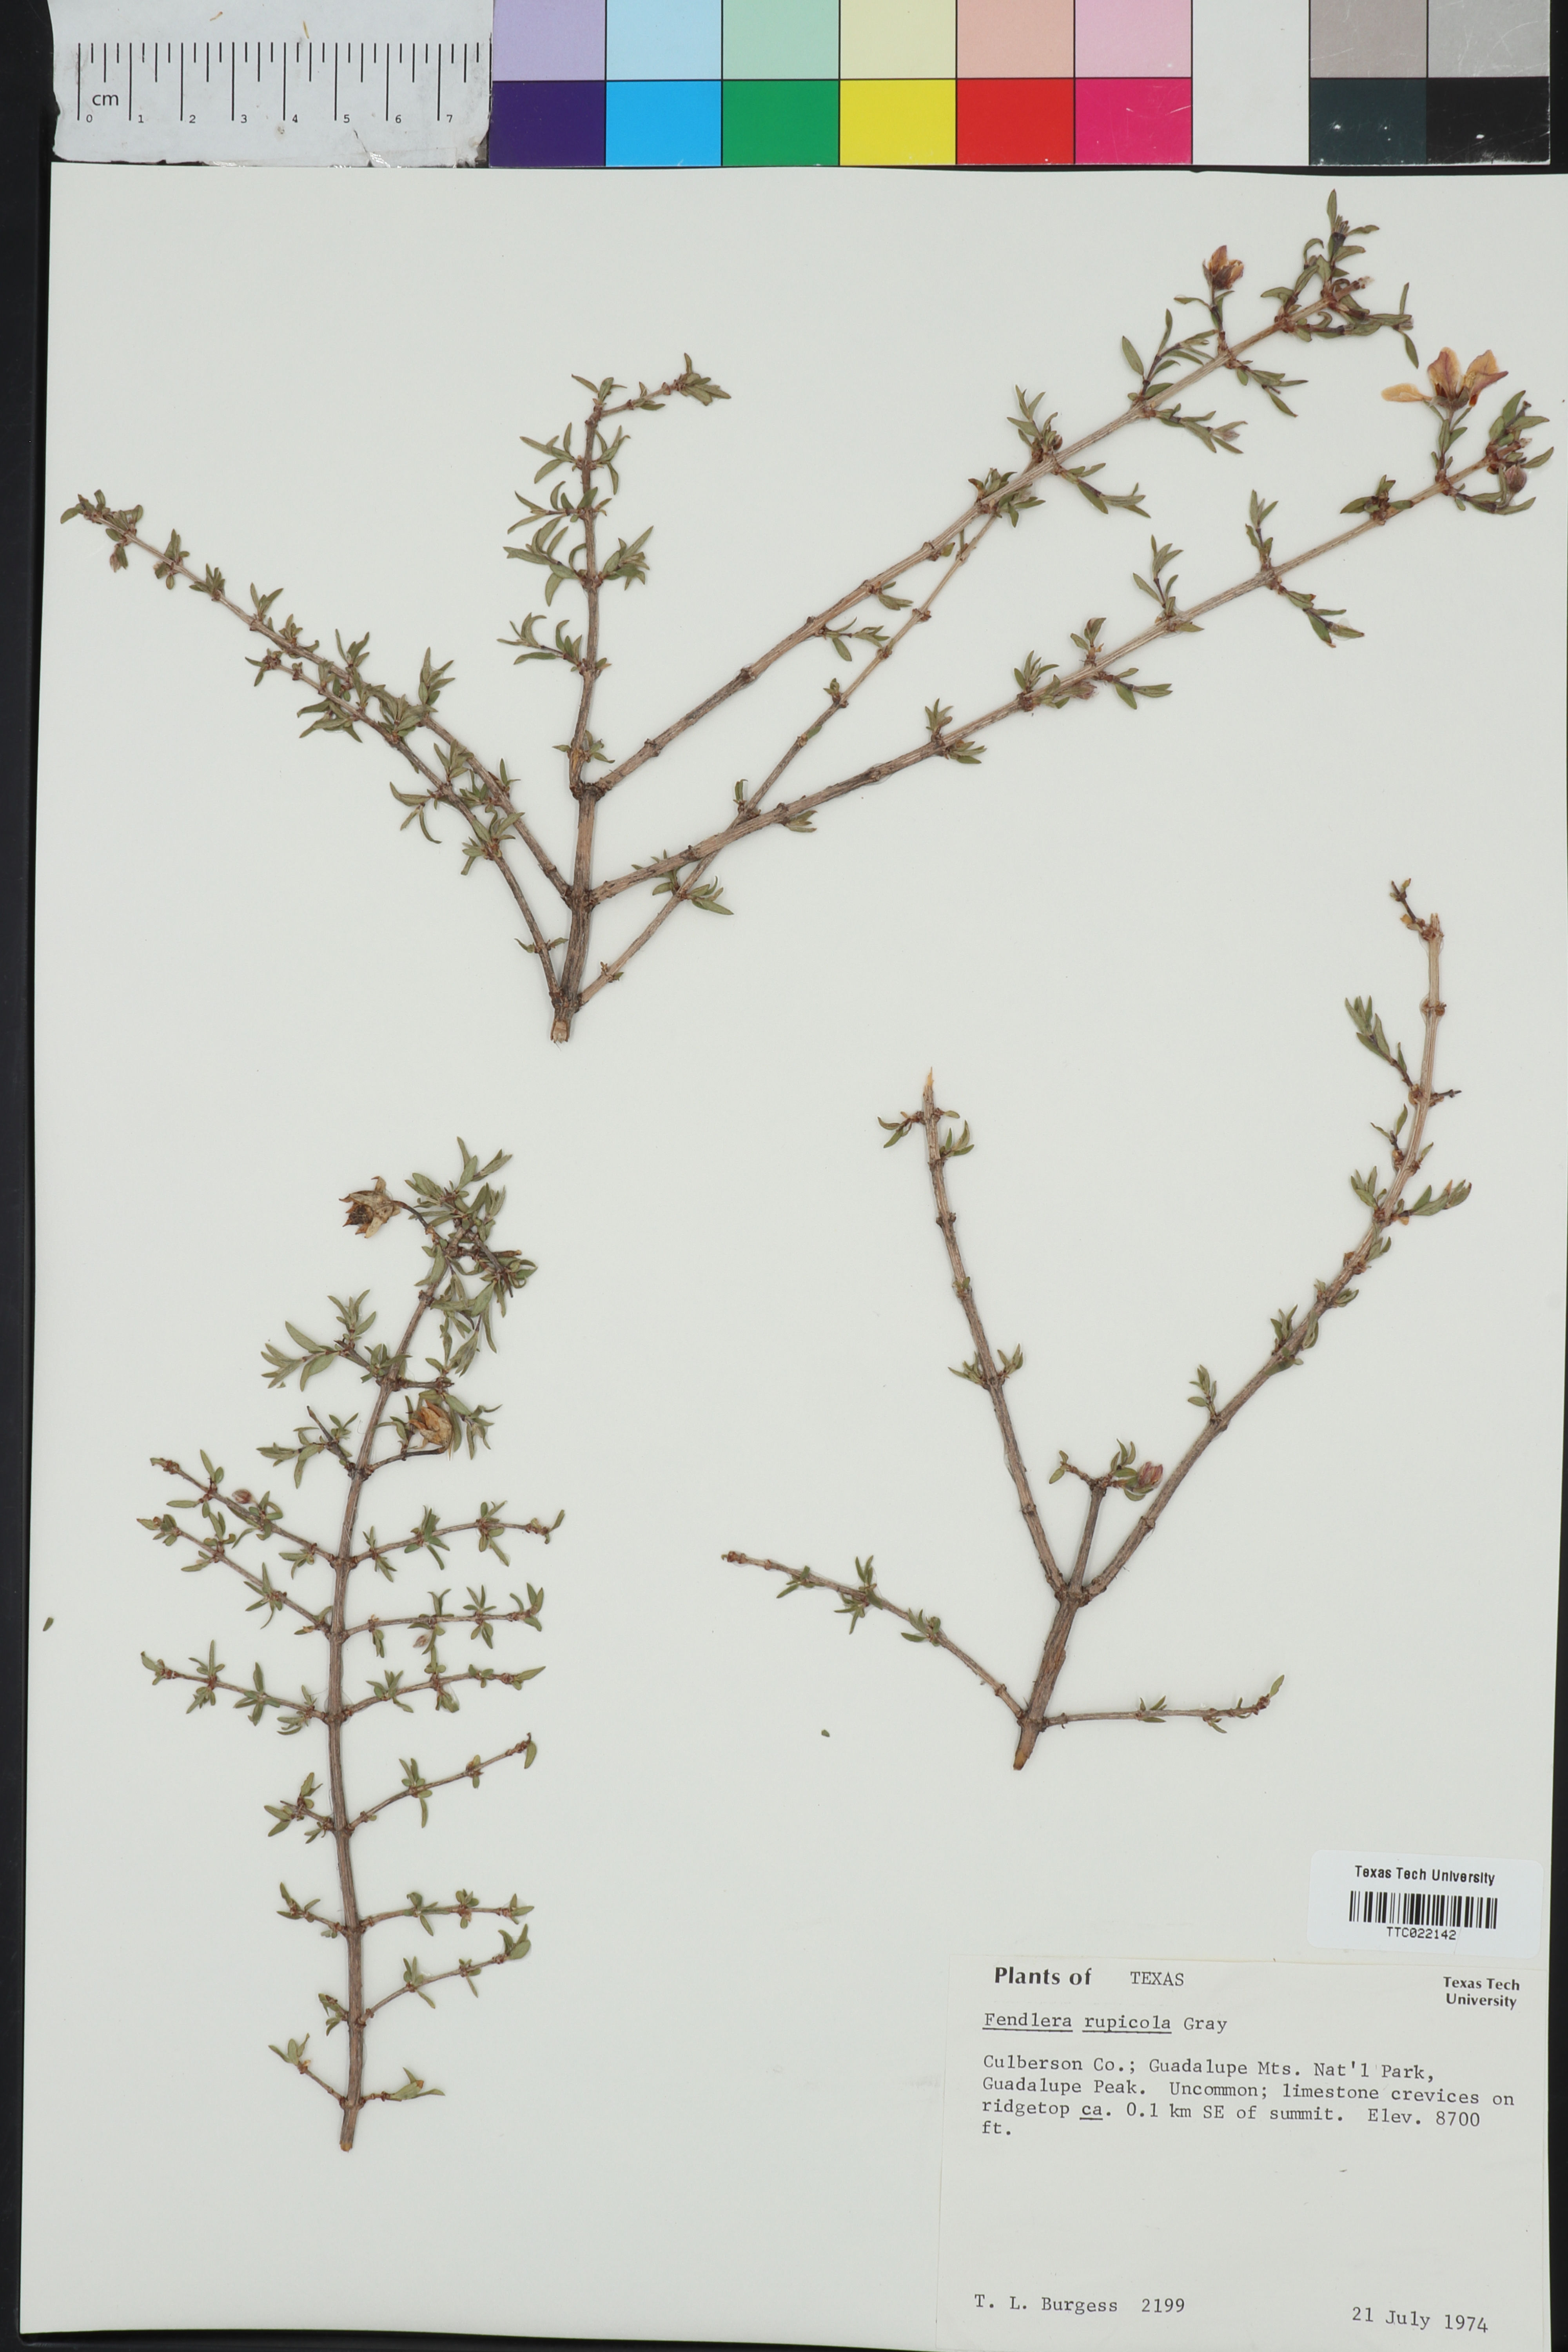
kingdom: Plantae
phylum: Tracheophyta
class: Magnoliopsida
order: Cornales
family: Hydrangeaceae
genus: Fendlera
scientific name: Fendlera rupicola
